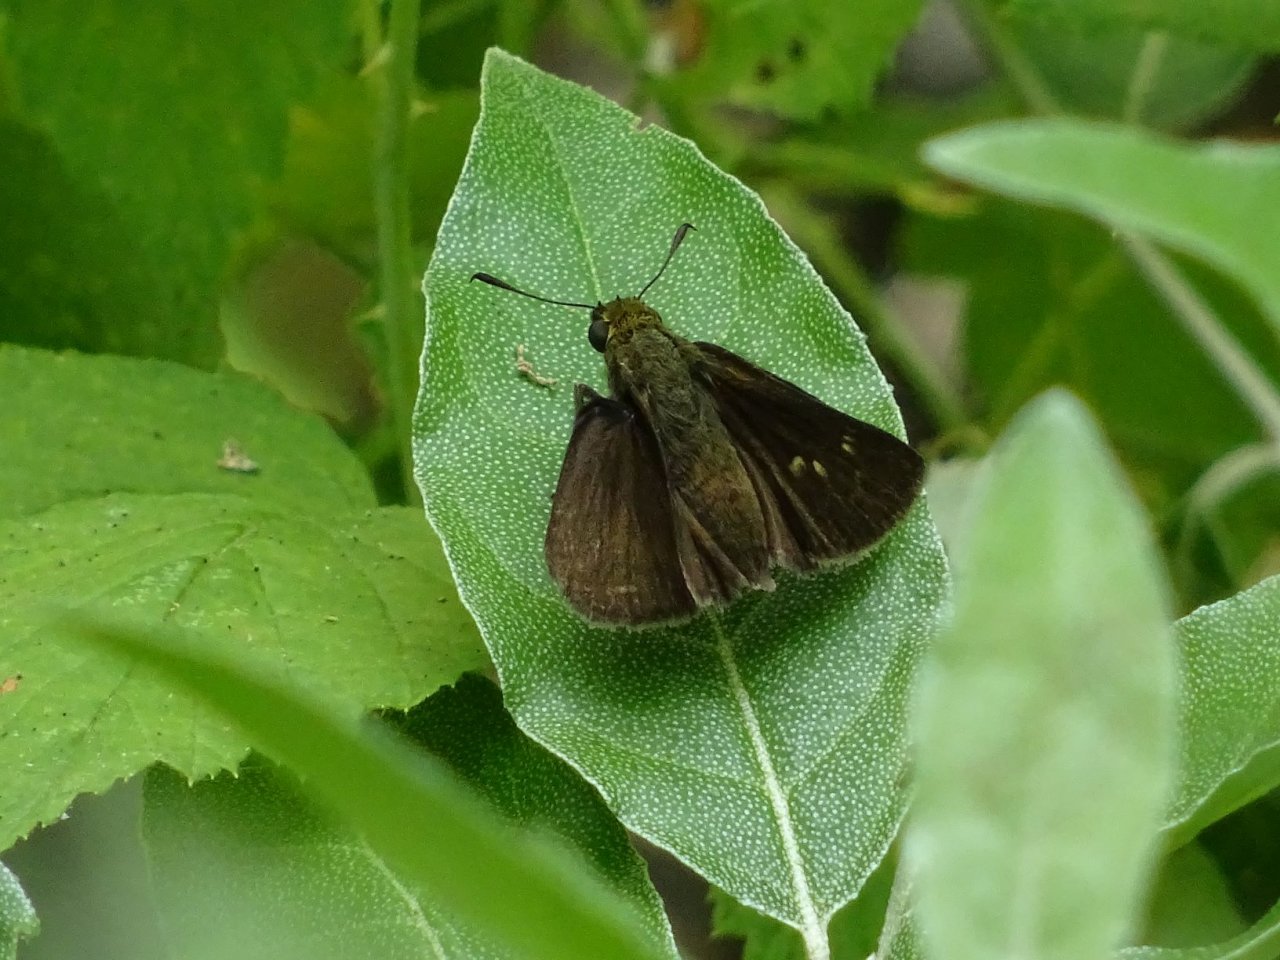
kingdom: Animalia
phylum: Arthropoda
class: Insecta
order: Lepidoptera
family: Hesperiidae
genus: Euphyes
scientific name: Euphyes vestris
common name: Dun Skipper
